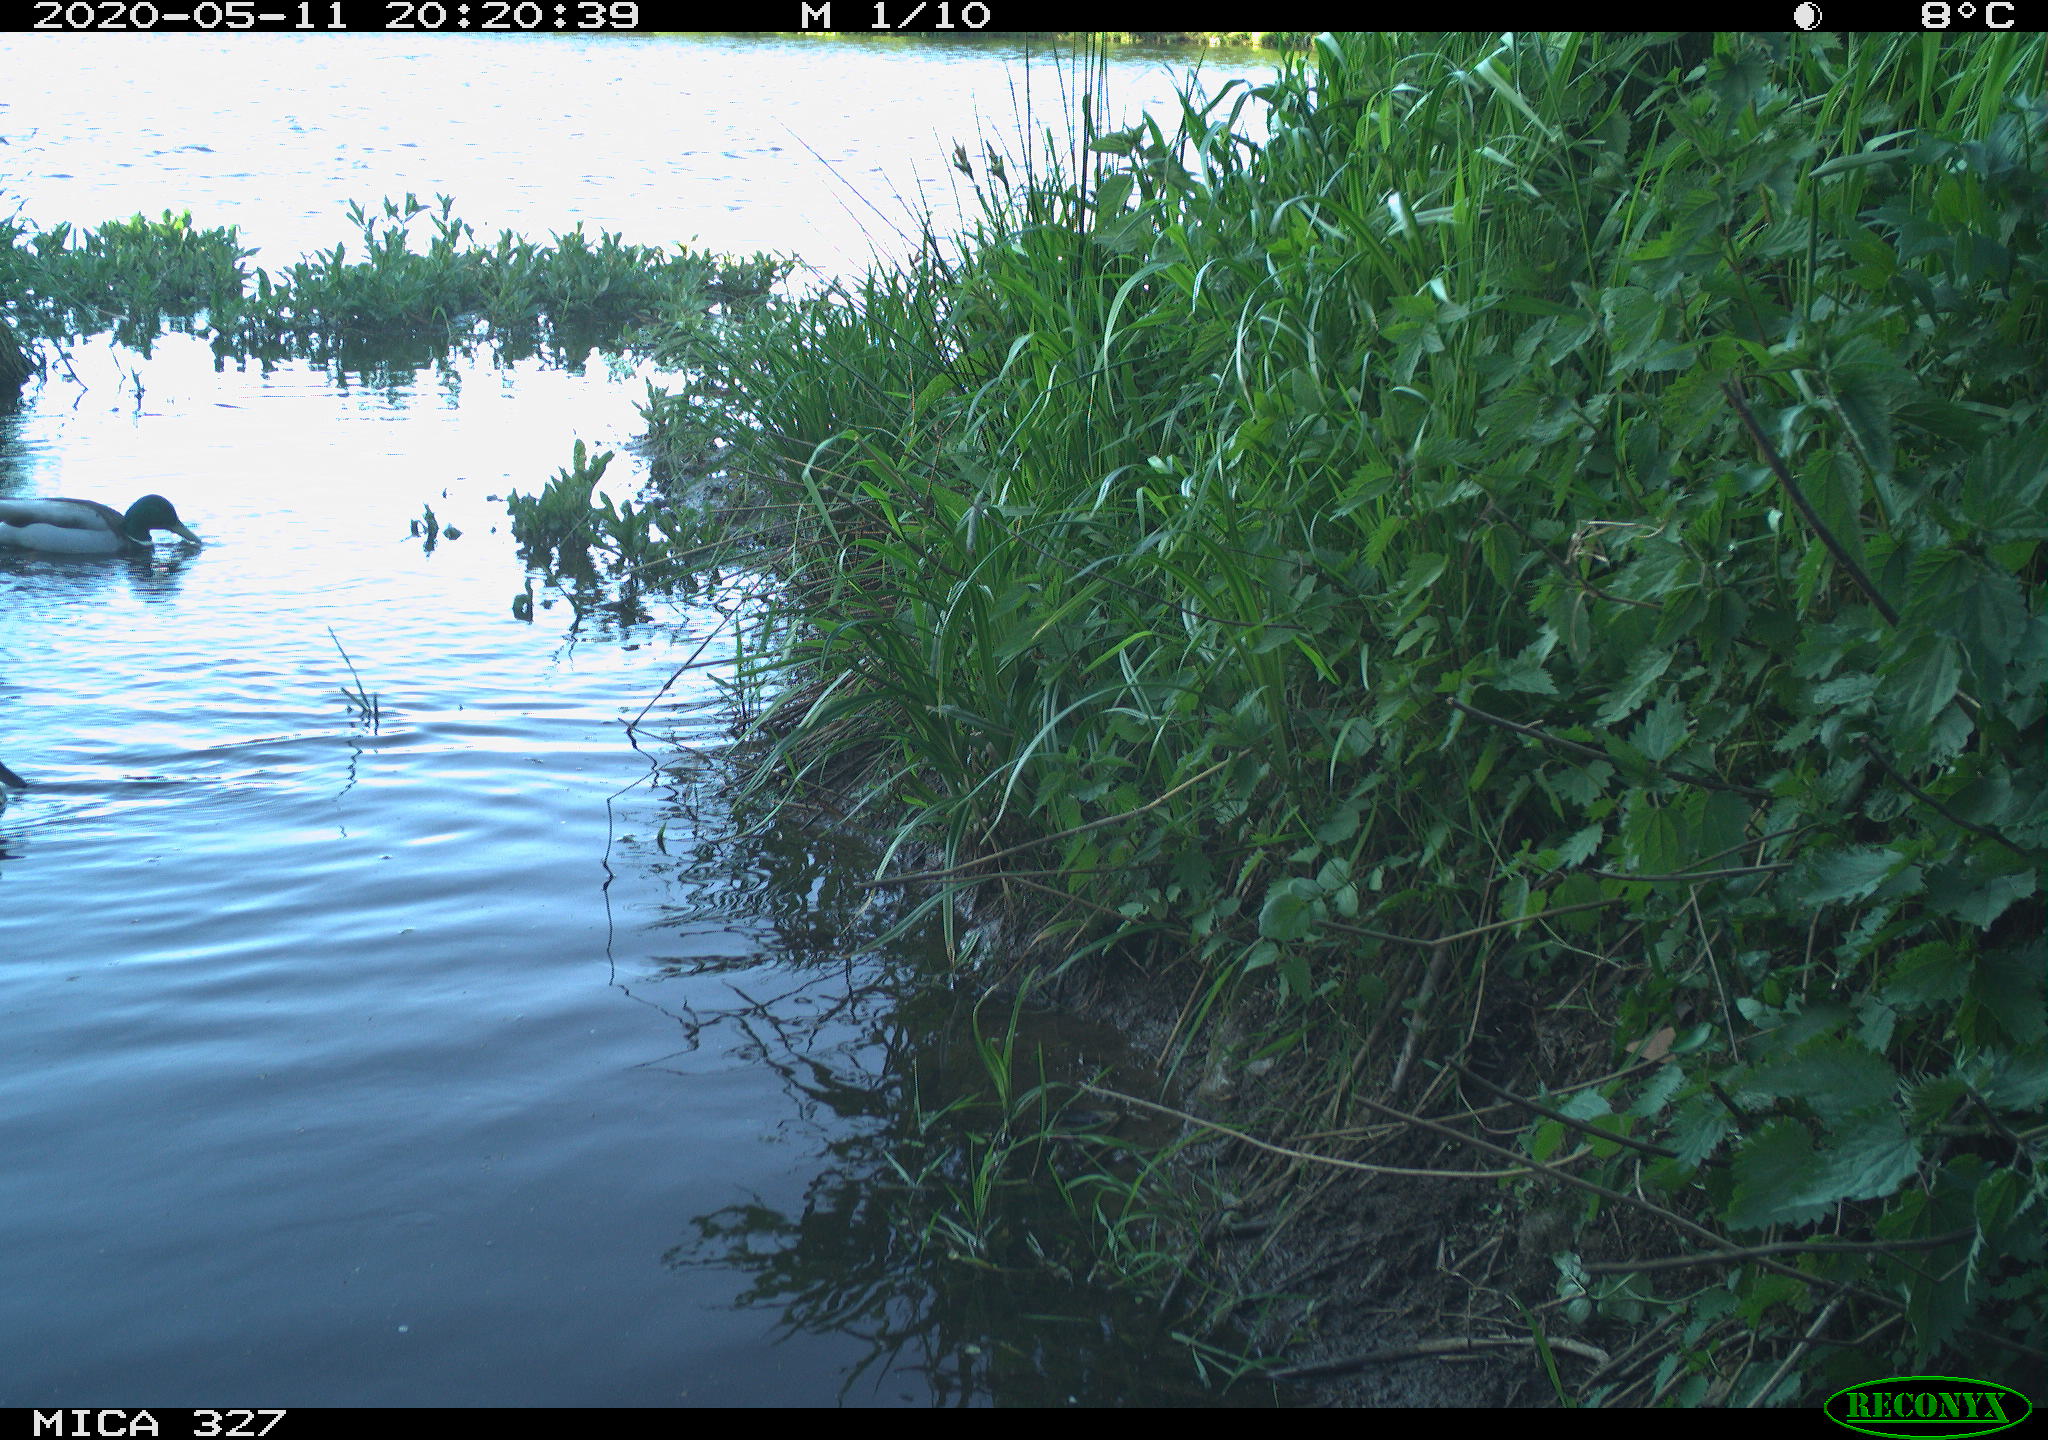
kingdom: Animalia
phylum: Chordata
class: Aves
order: Anseriformes
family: Anatidae
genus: Anas
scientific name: Anas platyrhynchos
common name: Mallard
